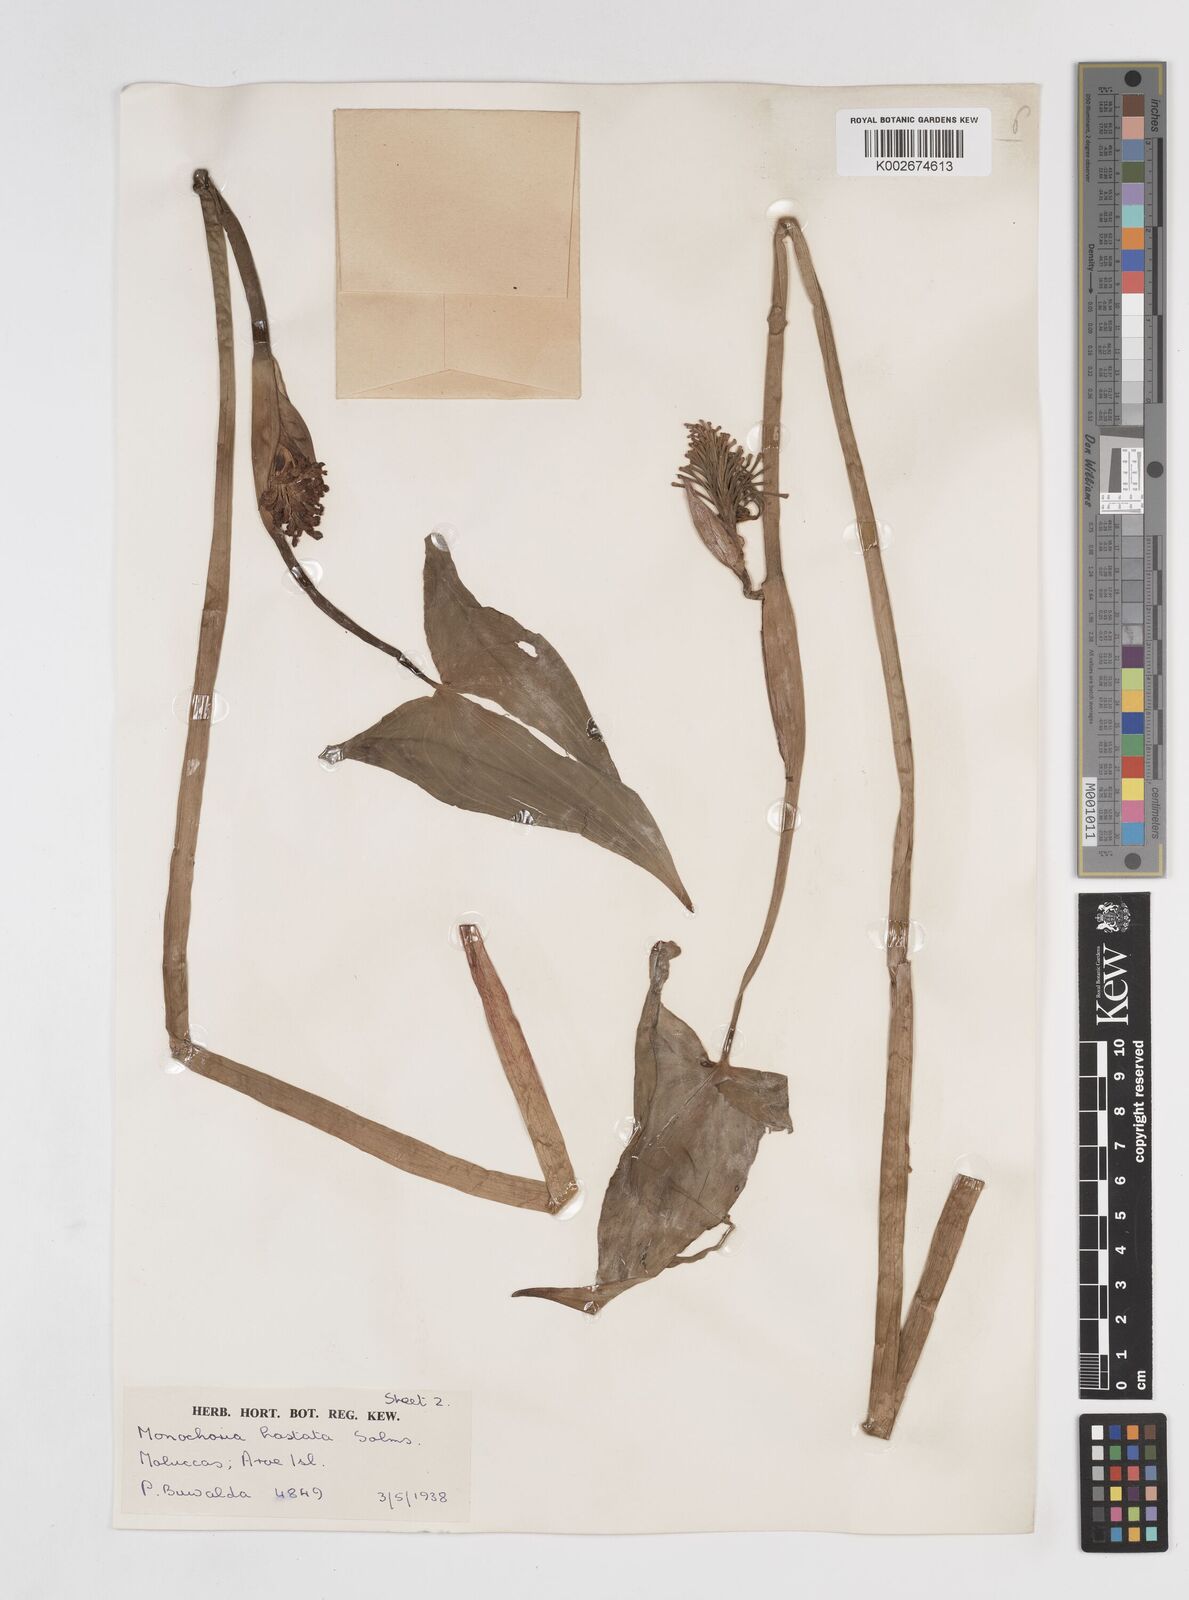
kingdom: Plantae
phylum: Tracheophyta
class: Liliopsida
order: Commelinales
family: Pontederiaceae
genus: Pontederia
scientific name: Pontederia hastata
